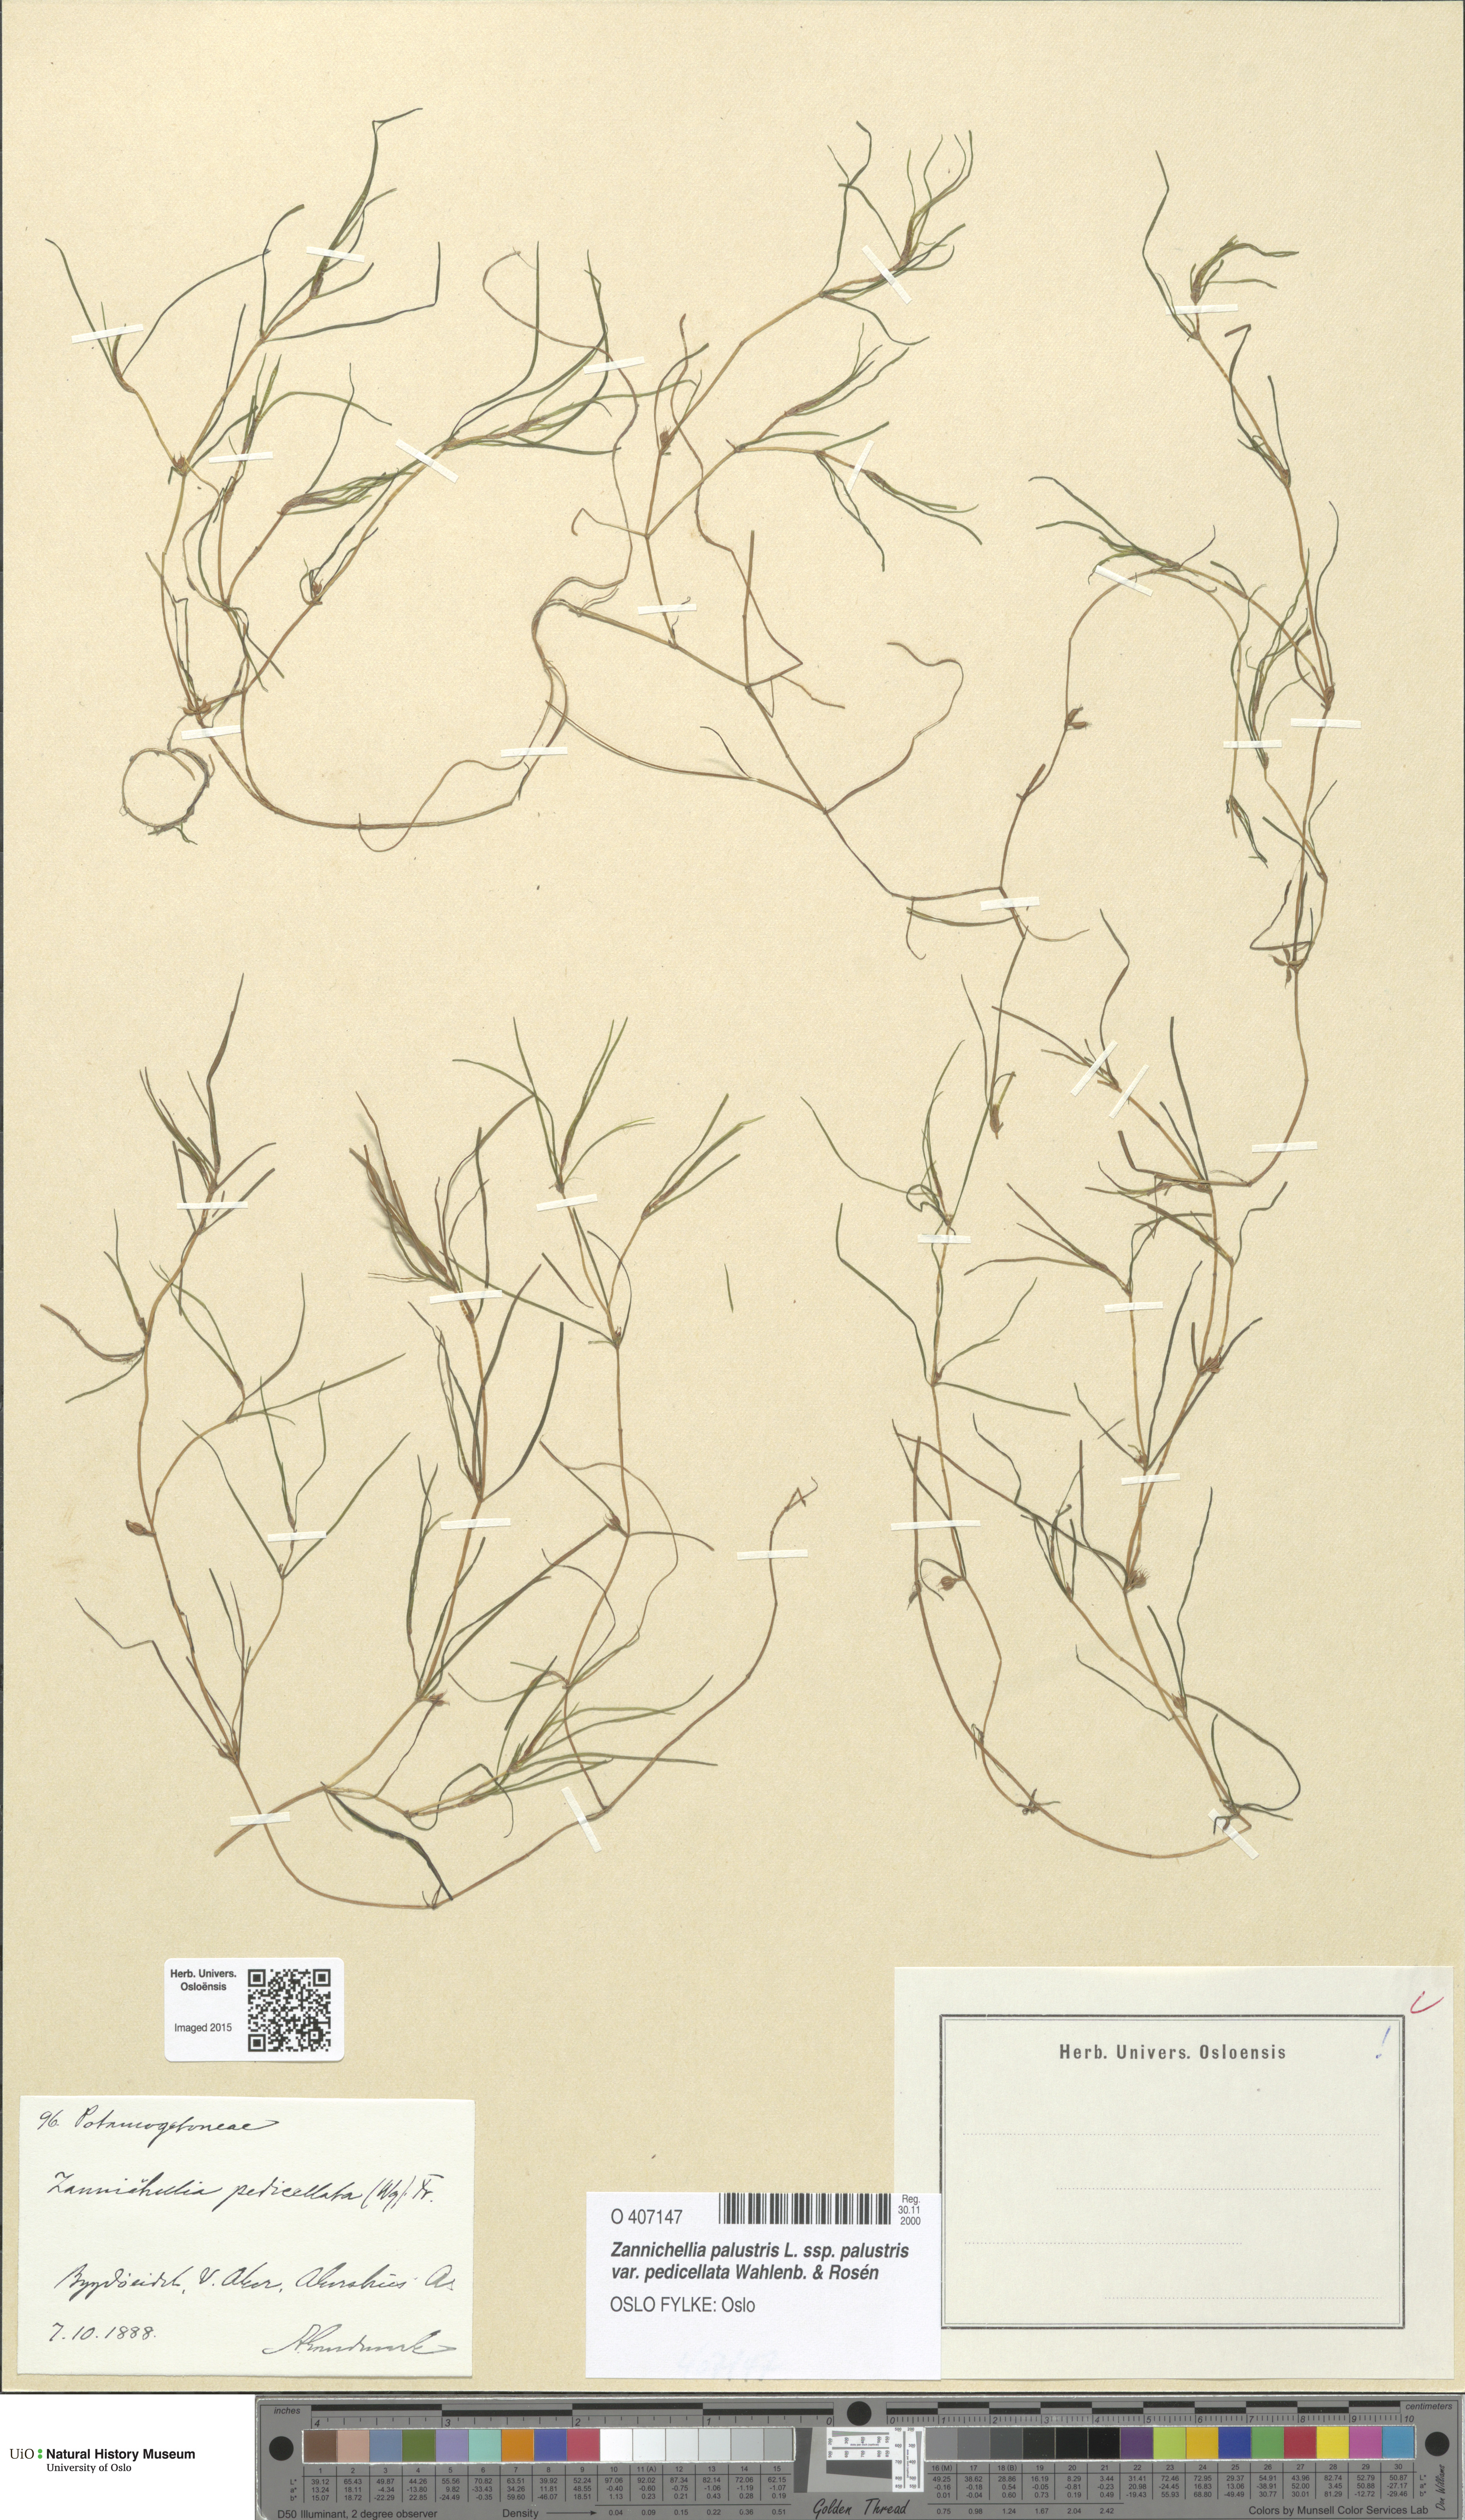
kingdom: Plantae
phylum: Tracheophyta
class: Liliopsida
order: Alismatales
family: Potamogetonaceae
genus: Zannichellia
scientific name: Zannichellia palustris
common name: Horned pondweed
